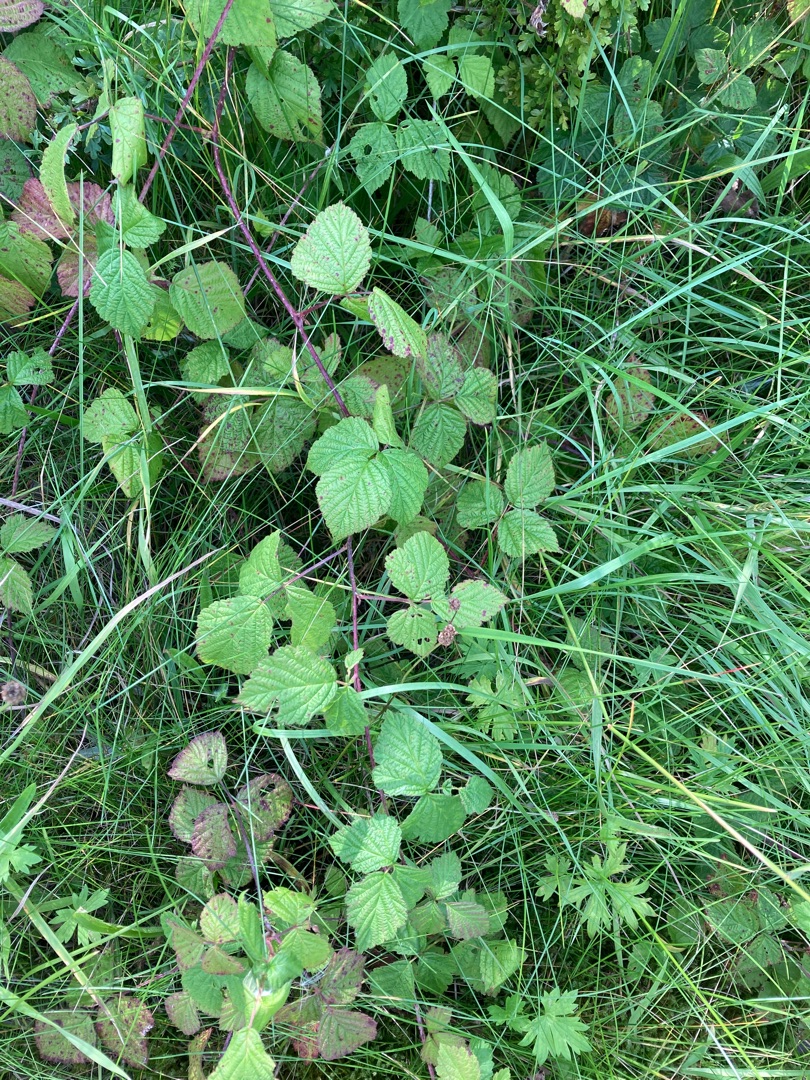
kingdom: Plantae
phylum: Tracheophyta
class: Magnoliopsida
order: Rosales
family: Rosaceae
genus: Rubus
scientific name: Rubus caesius
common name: Korbær
